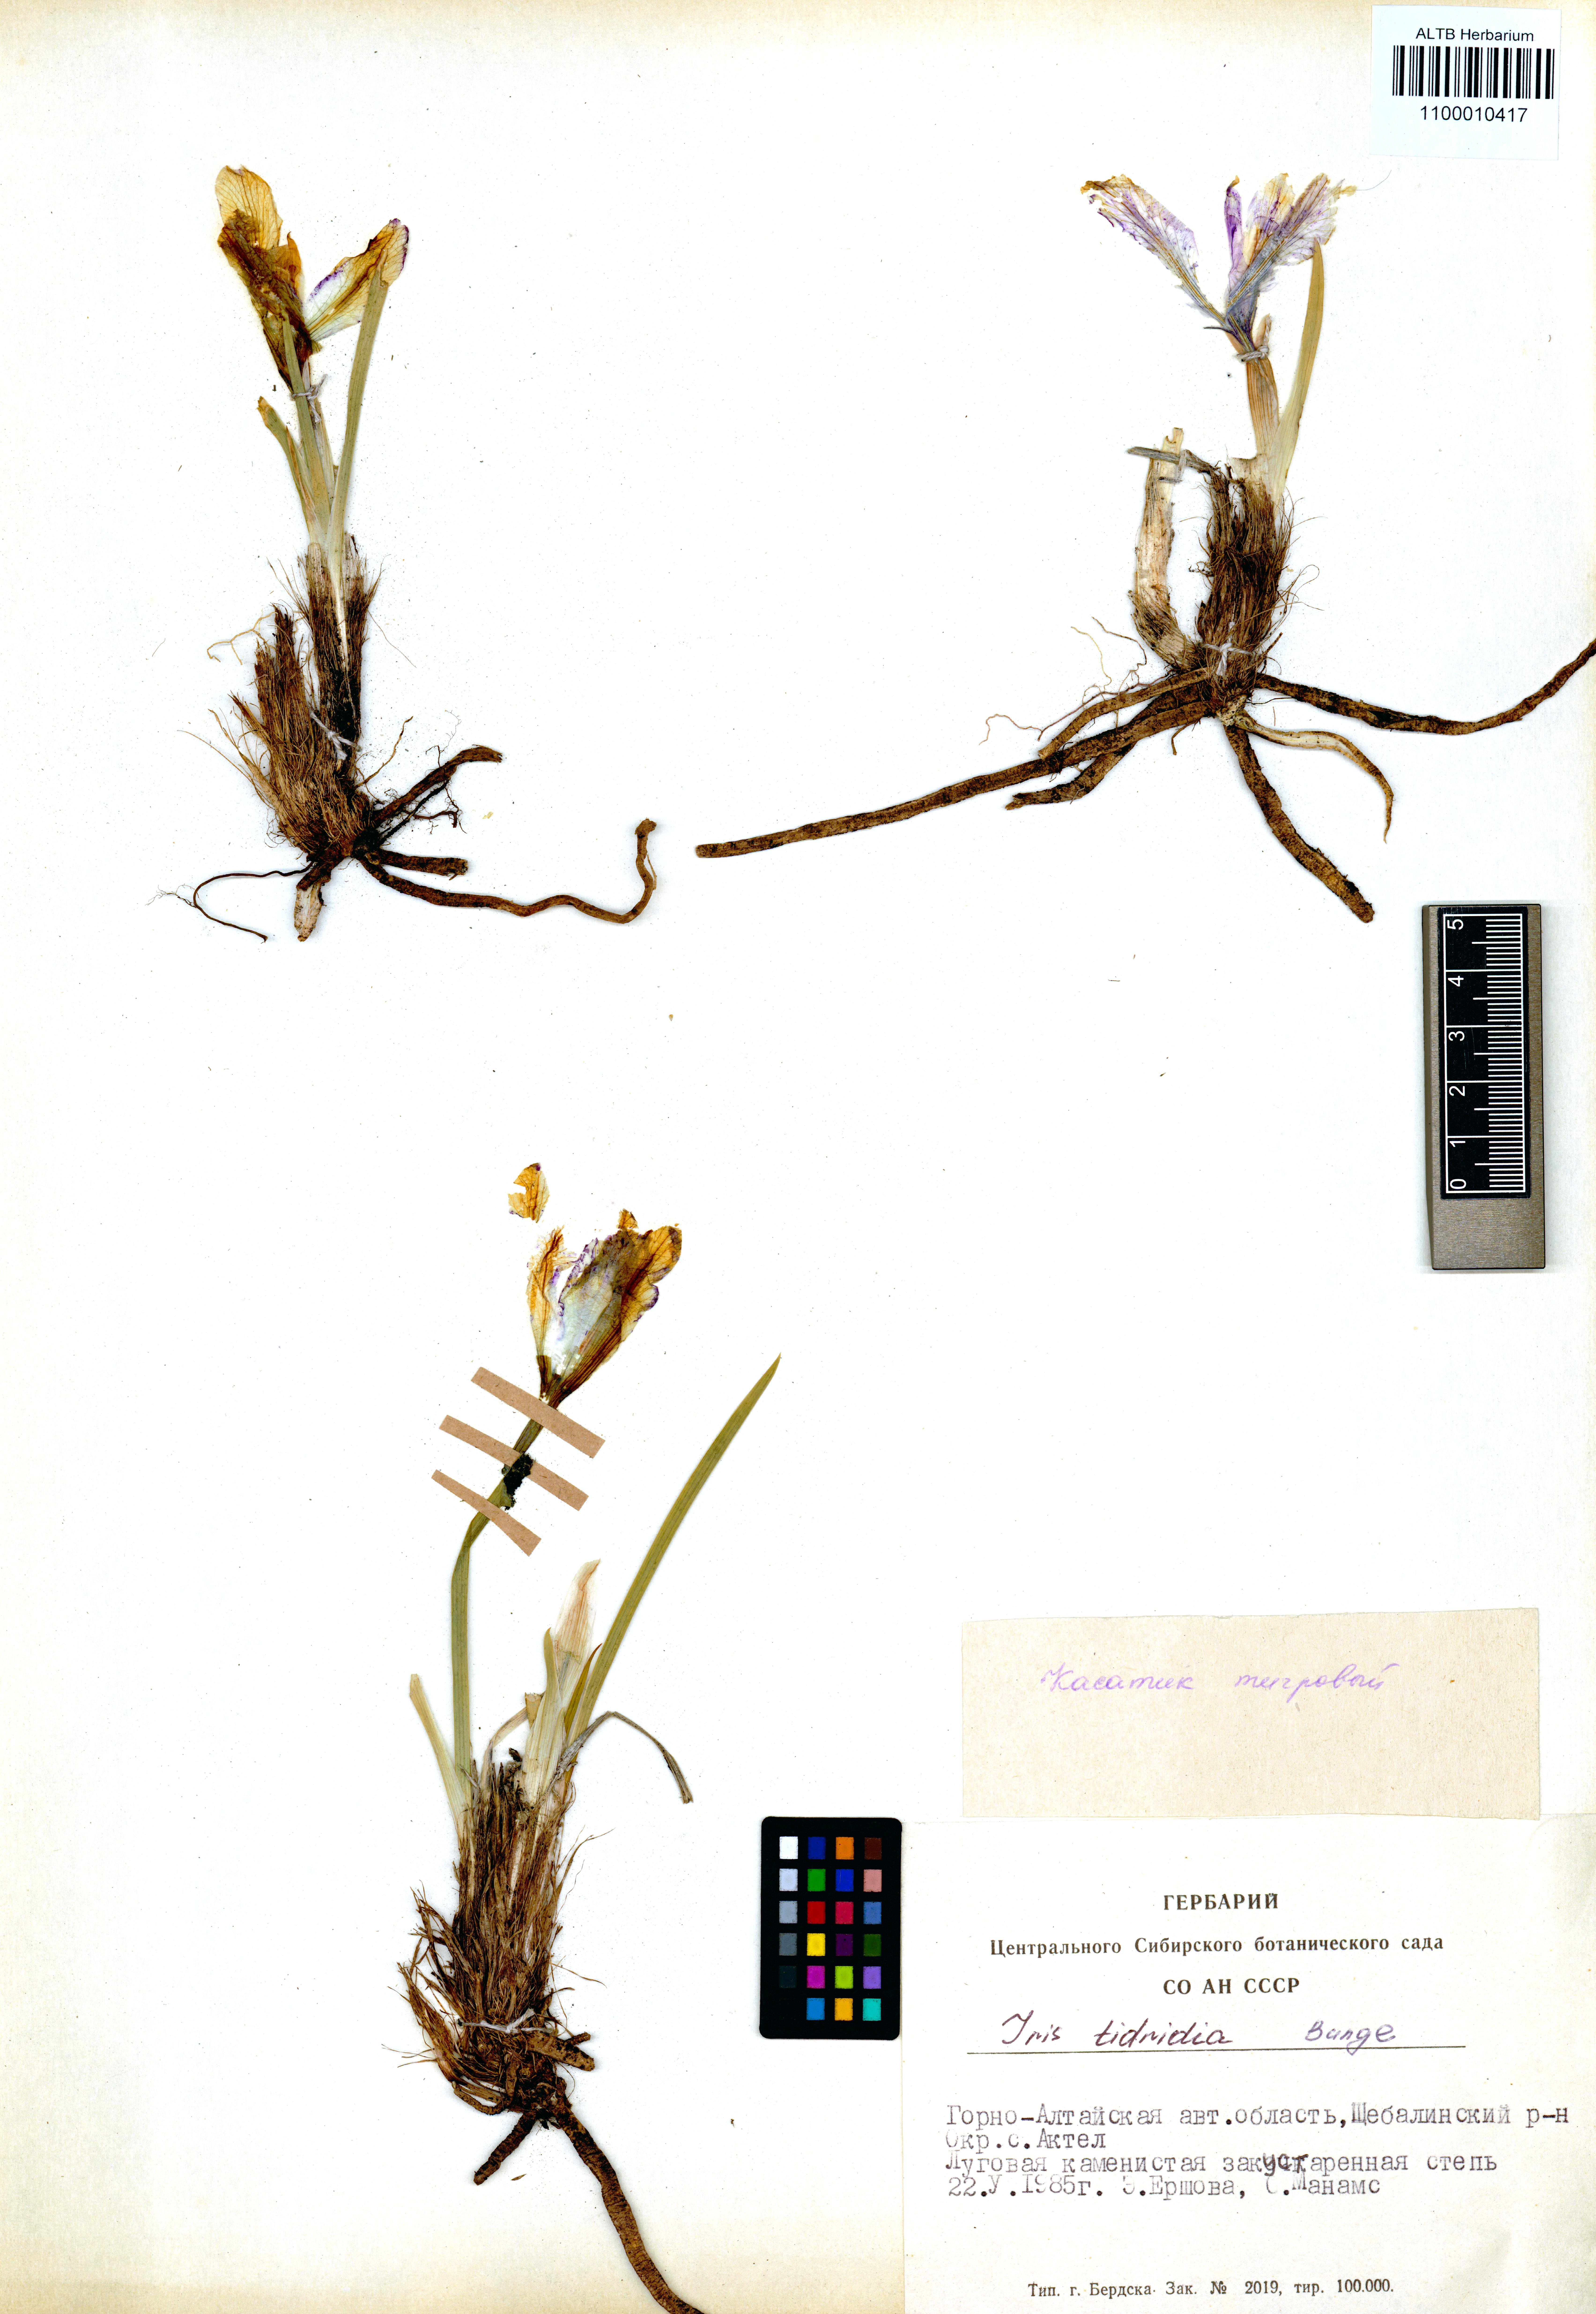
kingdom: Plantae
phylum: Tracheophyta
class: Liliopsida
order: Asparagales
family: Iridaceae
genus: Iris
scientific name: Iris tigridia
